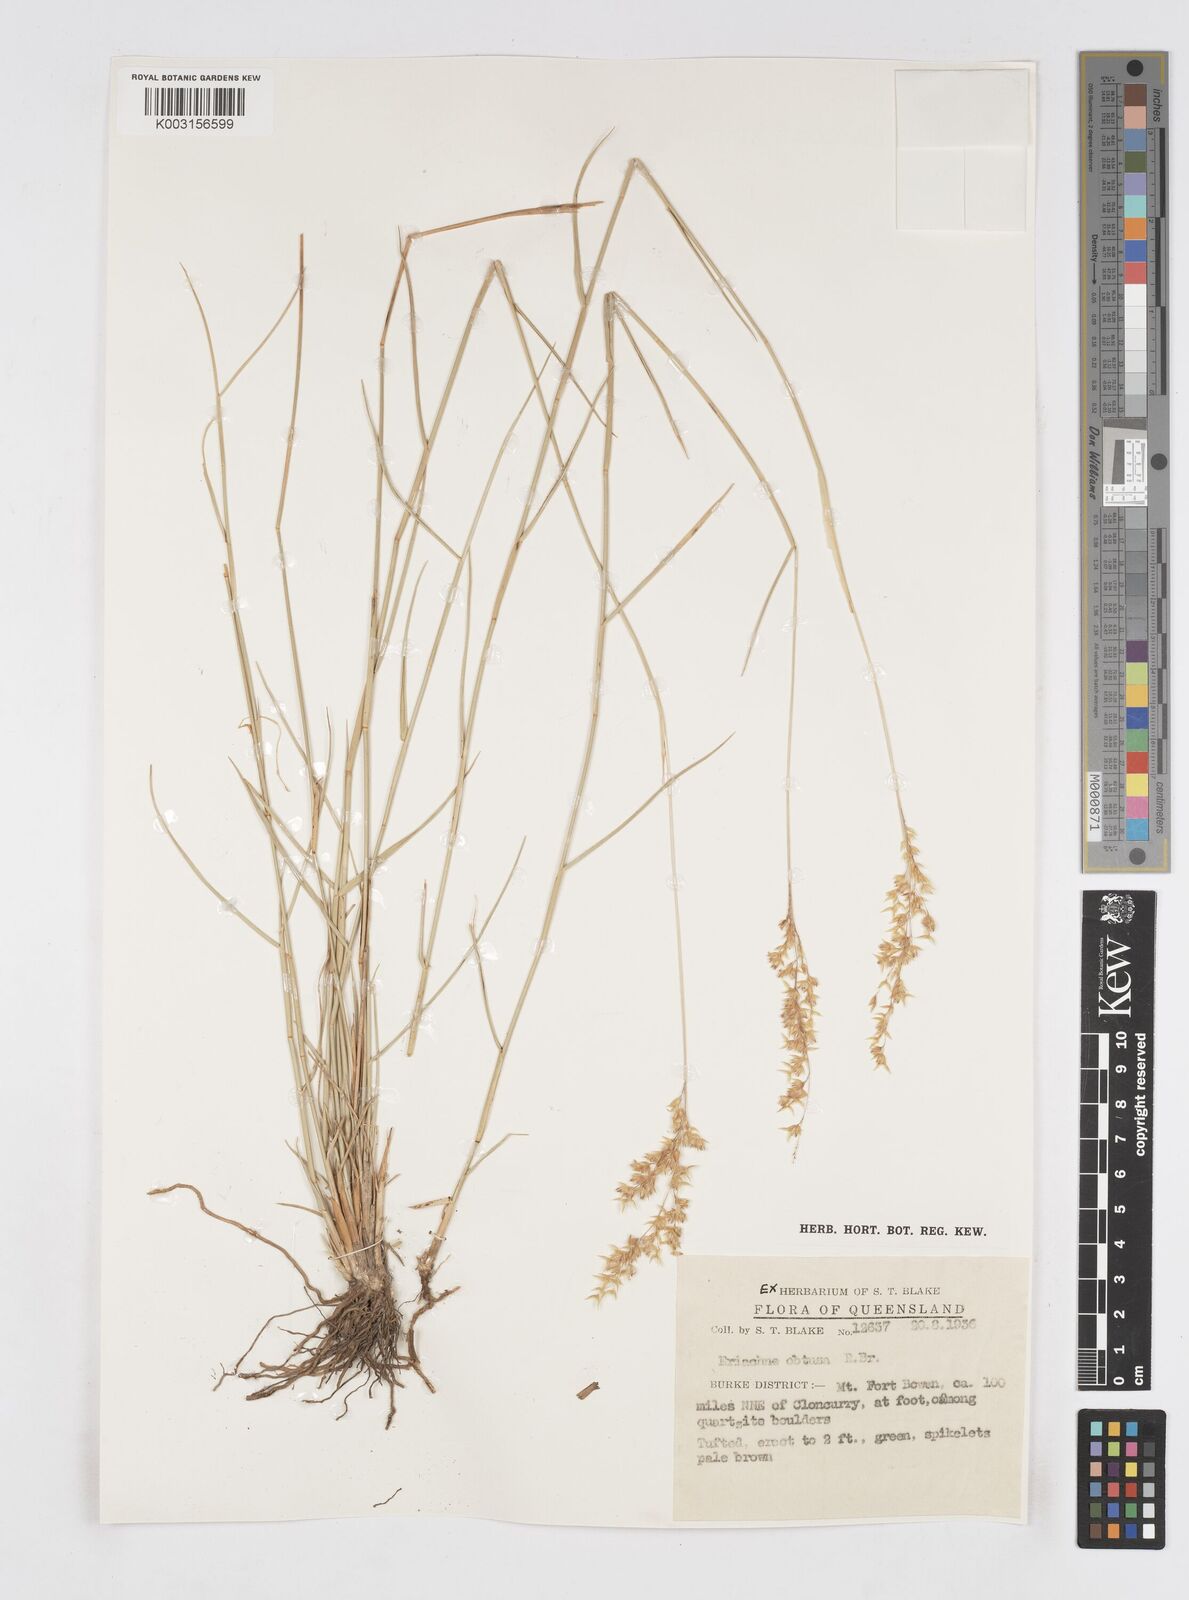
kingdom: Plantae
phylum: Tracheophyta
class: Liliopsida
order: Poales
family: Poaceae
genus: Eriachne
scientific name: Eriachne obtusa
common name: Northern wanderrie grass
